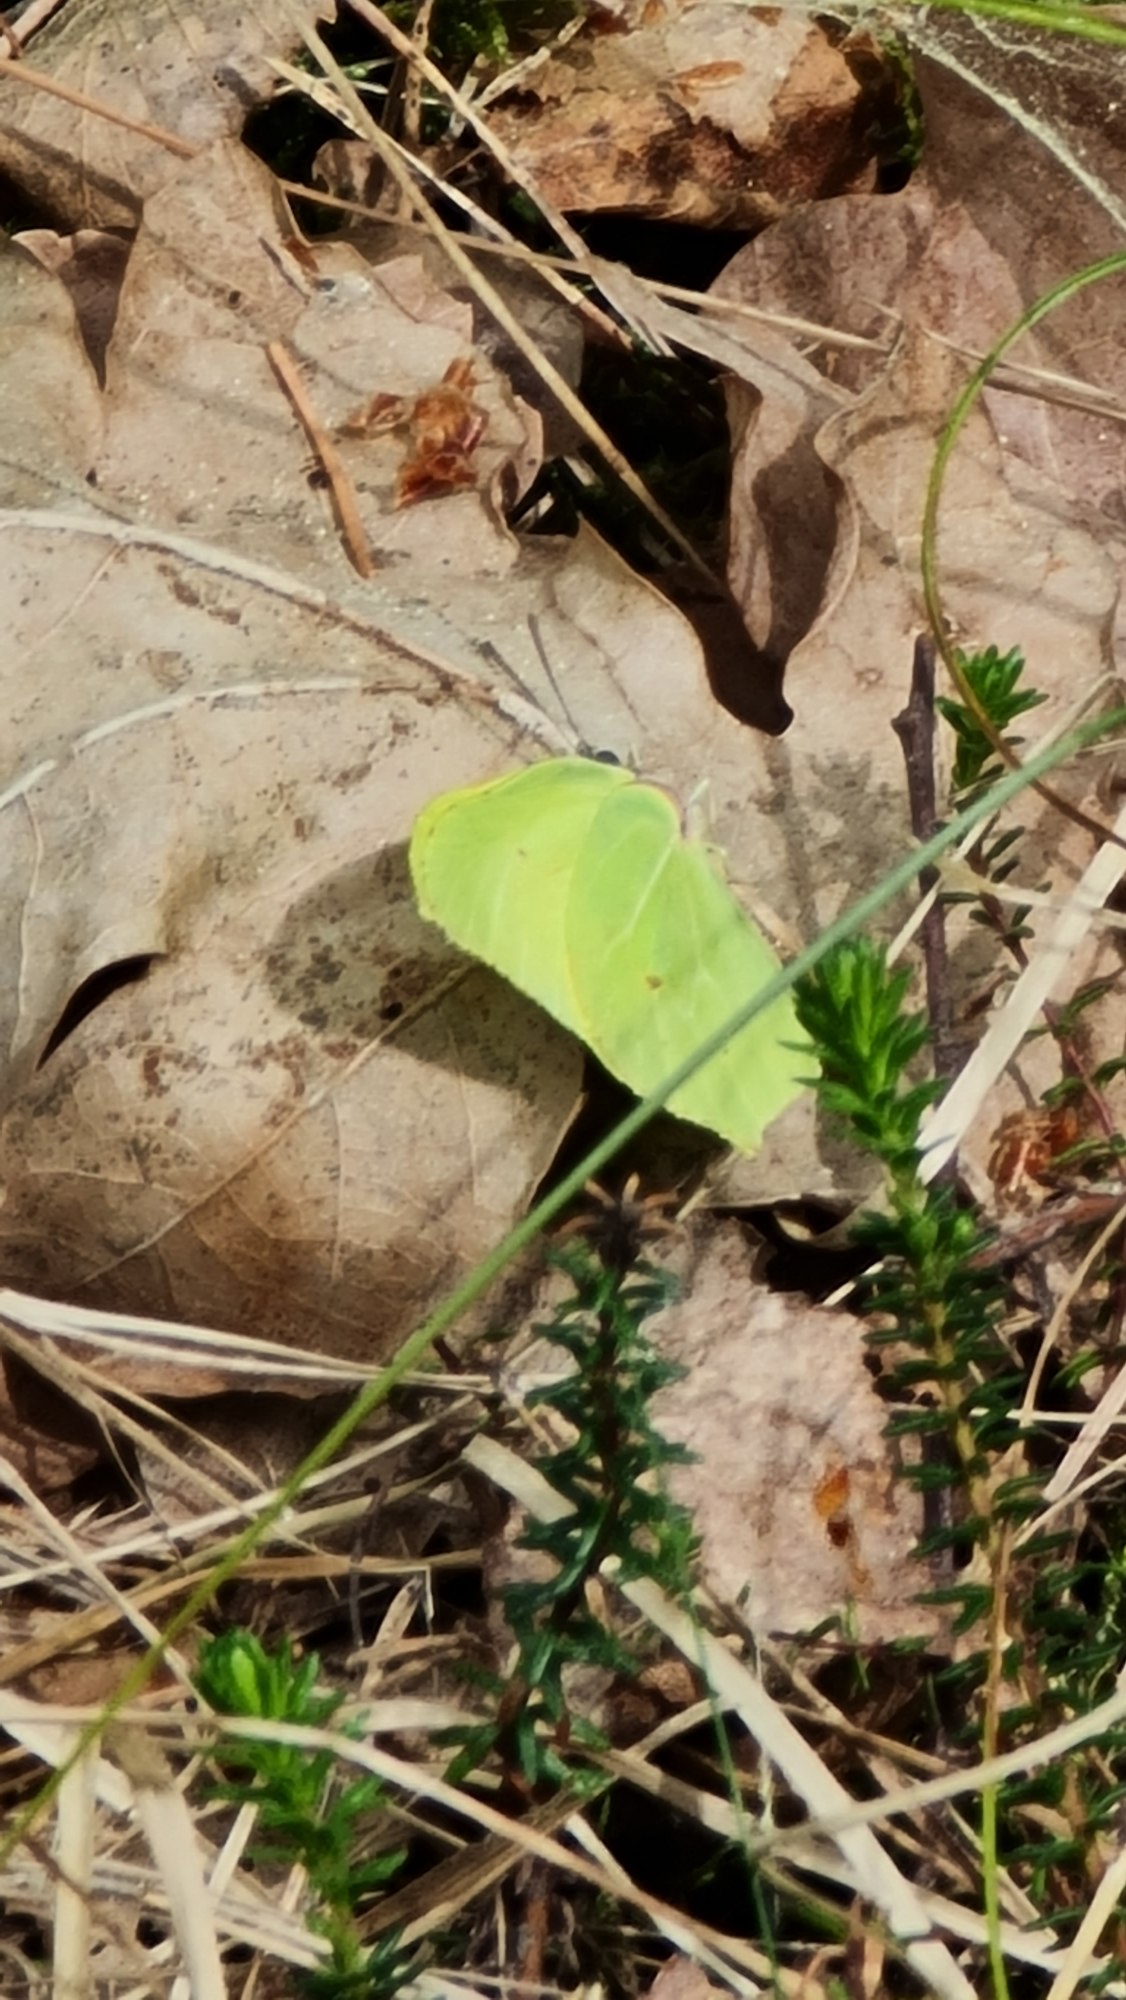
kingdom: Animalia
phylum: Arthropoda
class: Insecta
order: Lepidoptera
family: Pieridae
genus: Gonepteryx
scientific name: Gonepteryx rhamni
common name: Citronsommerfugl
